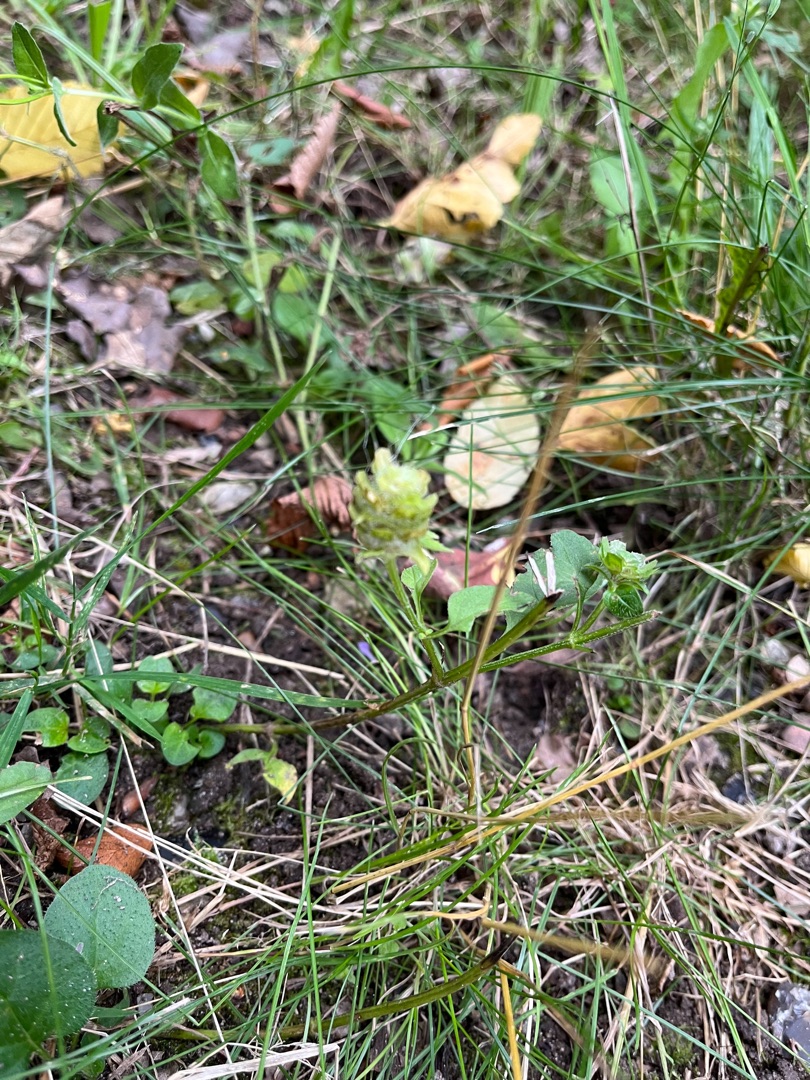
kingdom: Plantae
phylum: Tracheophyta
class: Magnoliopsida
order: Lamiales
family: Lamiaceae
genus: Prunella
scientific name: Prunella vulgaris
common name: Almindelig brunelle
